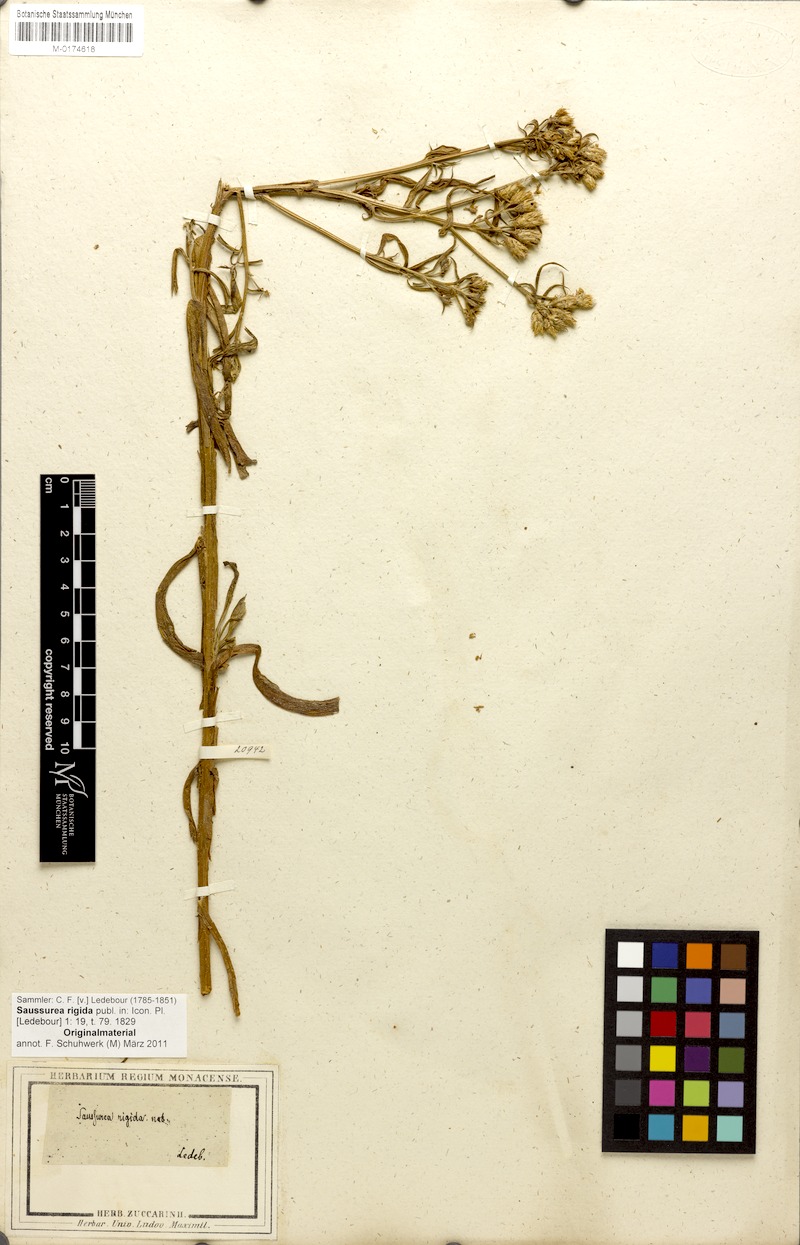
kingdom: Plantae
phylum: Tracheophyta
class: Magnoliopsida
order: Asterales
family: Asteraceae
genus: Saussurea
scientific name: Saussurea rigida
